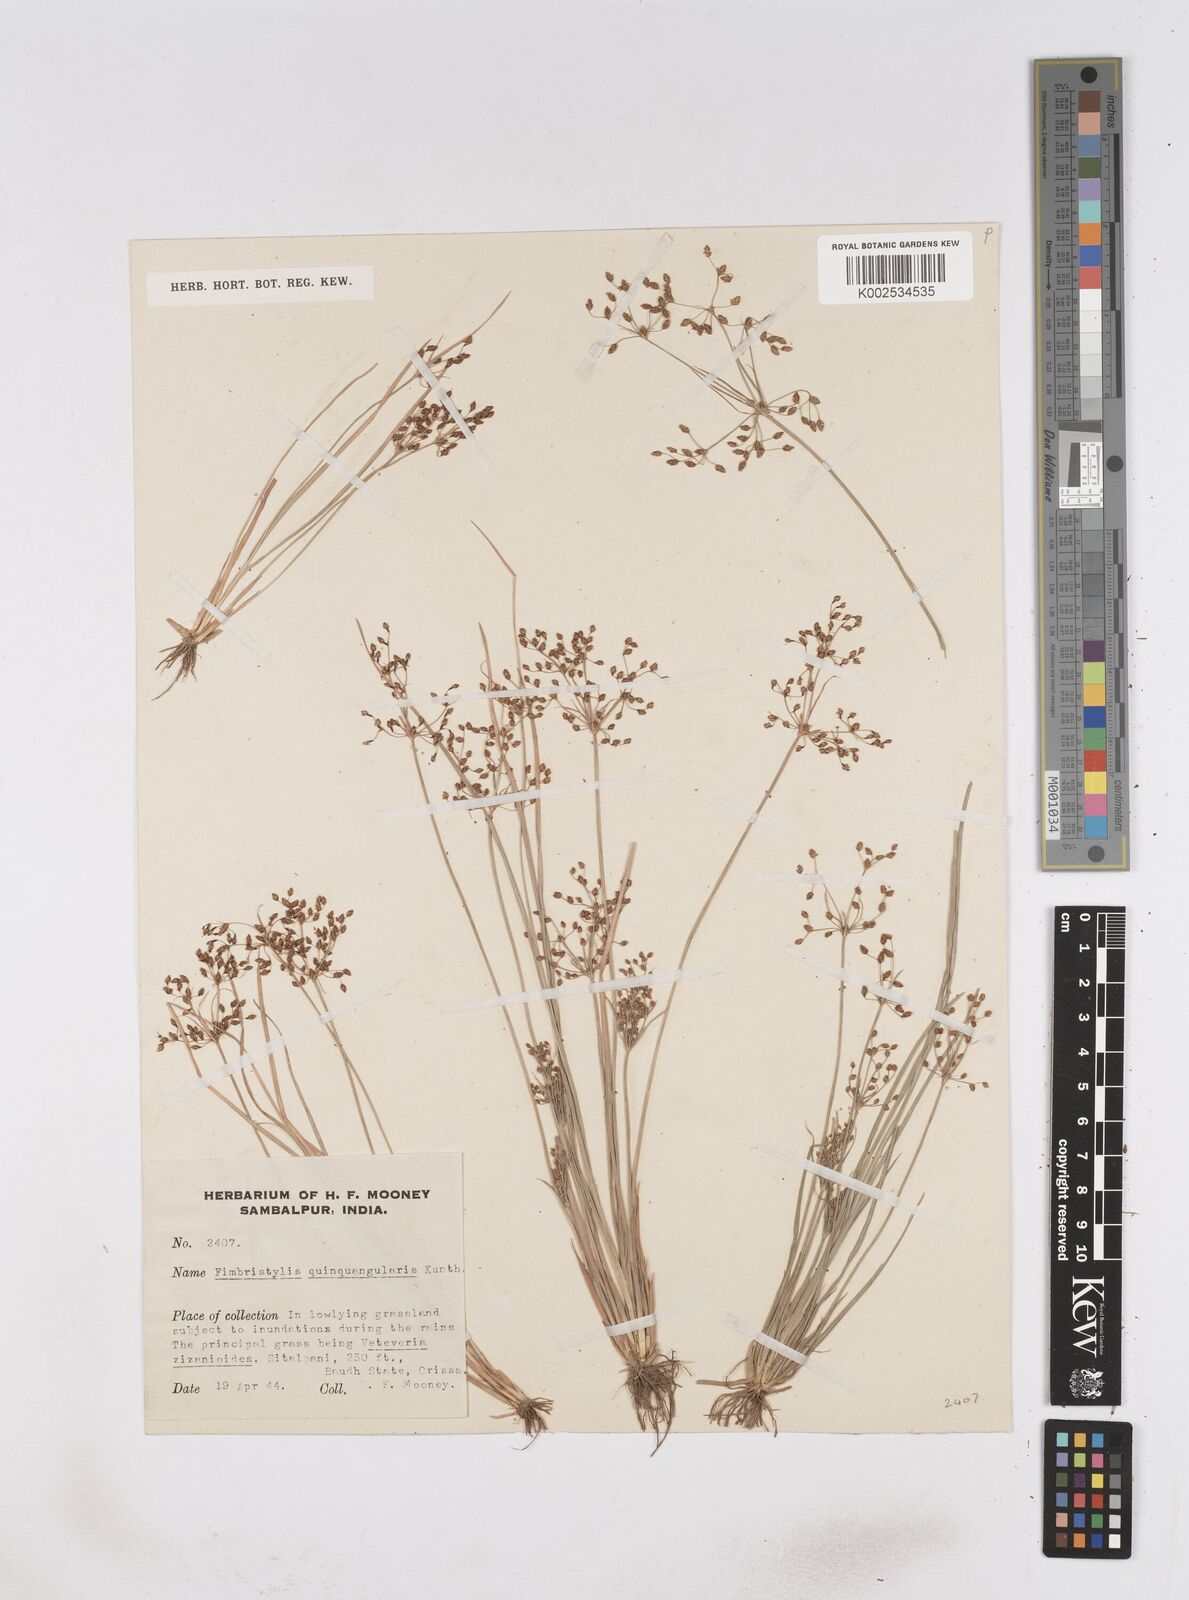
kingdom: Plantae
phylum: Tracheophyta
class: Liliopsida
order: Poales
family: Cyperaceae
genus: Fimbristylis
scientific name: Fimbristylis quinquangularis
